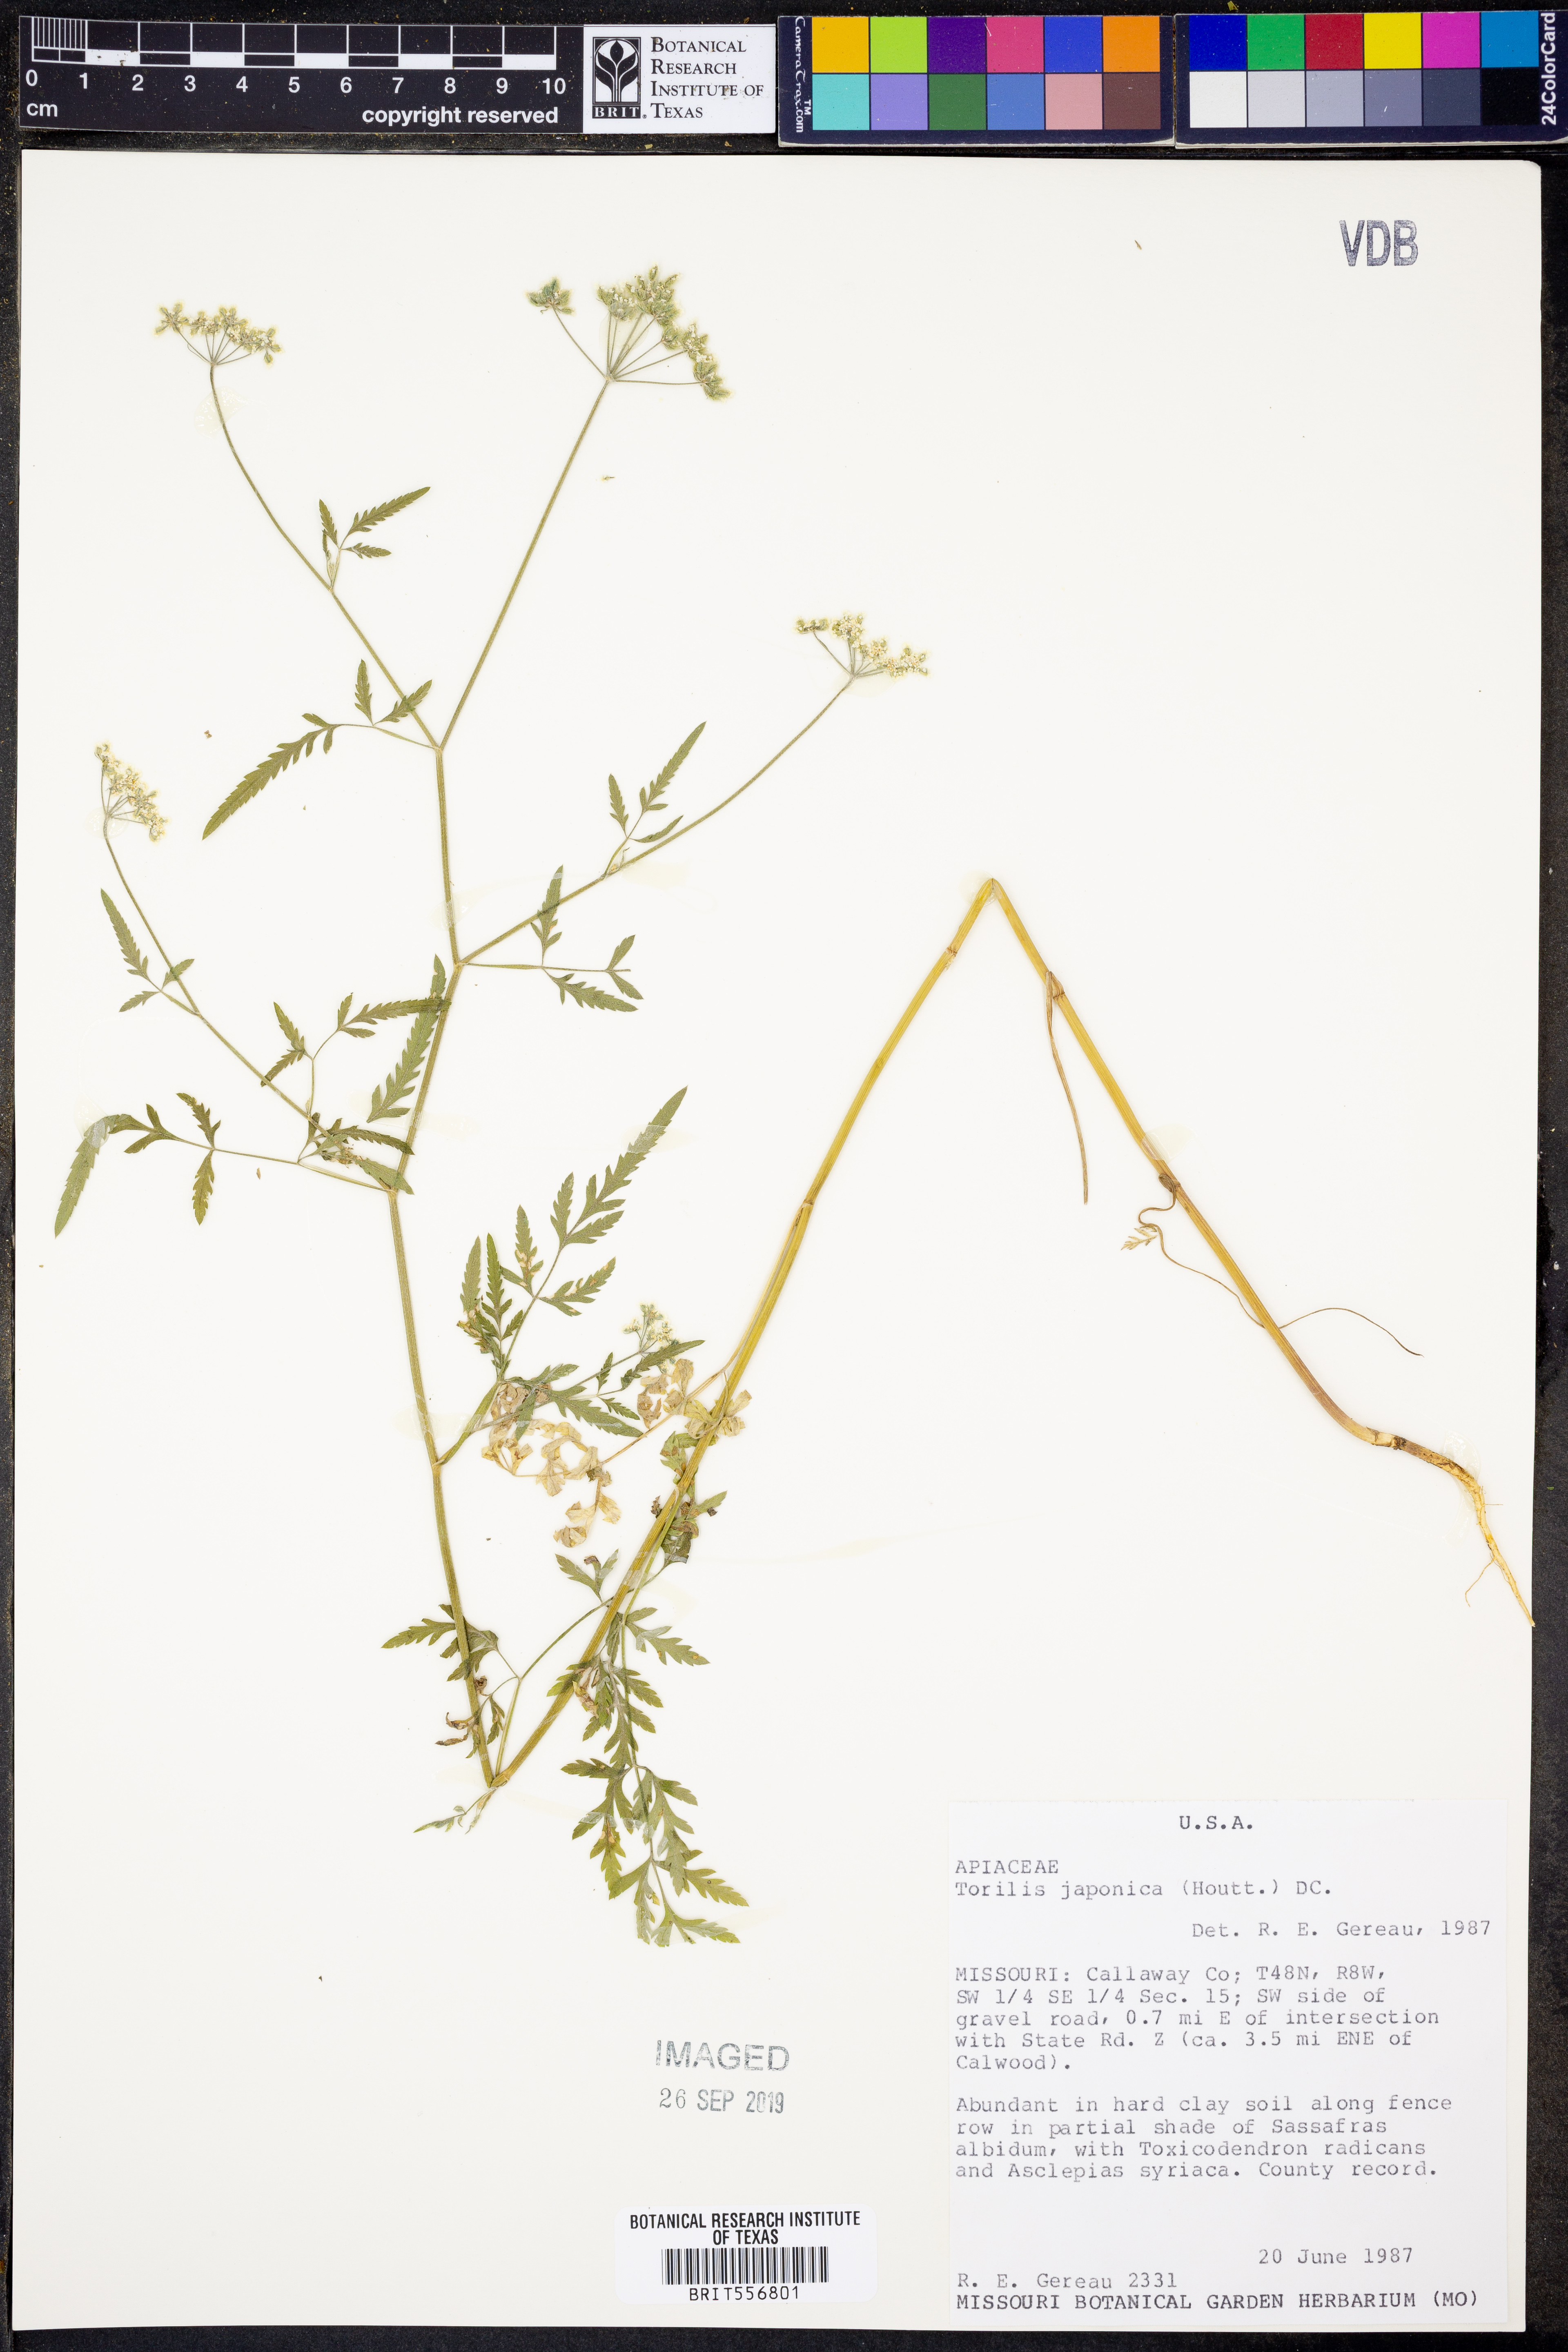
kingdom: Plantae
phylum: Tracheophyta
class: Magnoliopsida
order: Apiales
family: Apiaceae
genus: Torilis
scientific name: Torilis japonica
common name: Upright hedge-parsley
